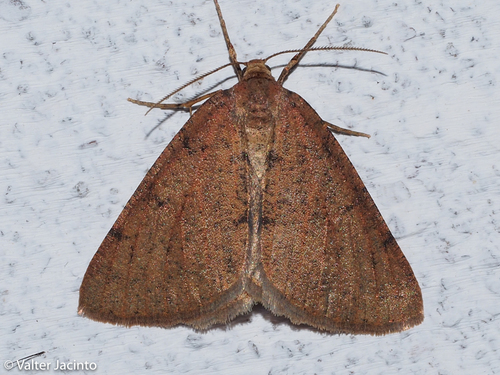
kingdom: Animalia
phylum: Arthropoda
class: Insecta
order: Lepidoptera
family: Geometridae
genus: Isturgia
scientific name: Isturgia miniosaria
